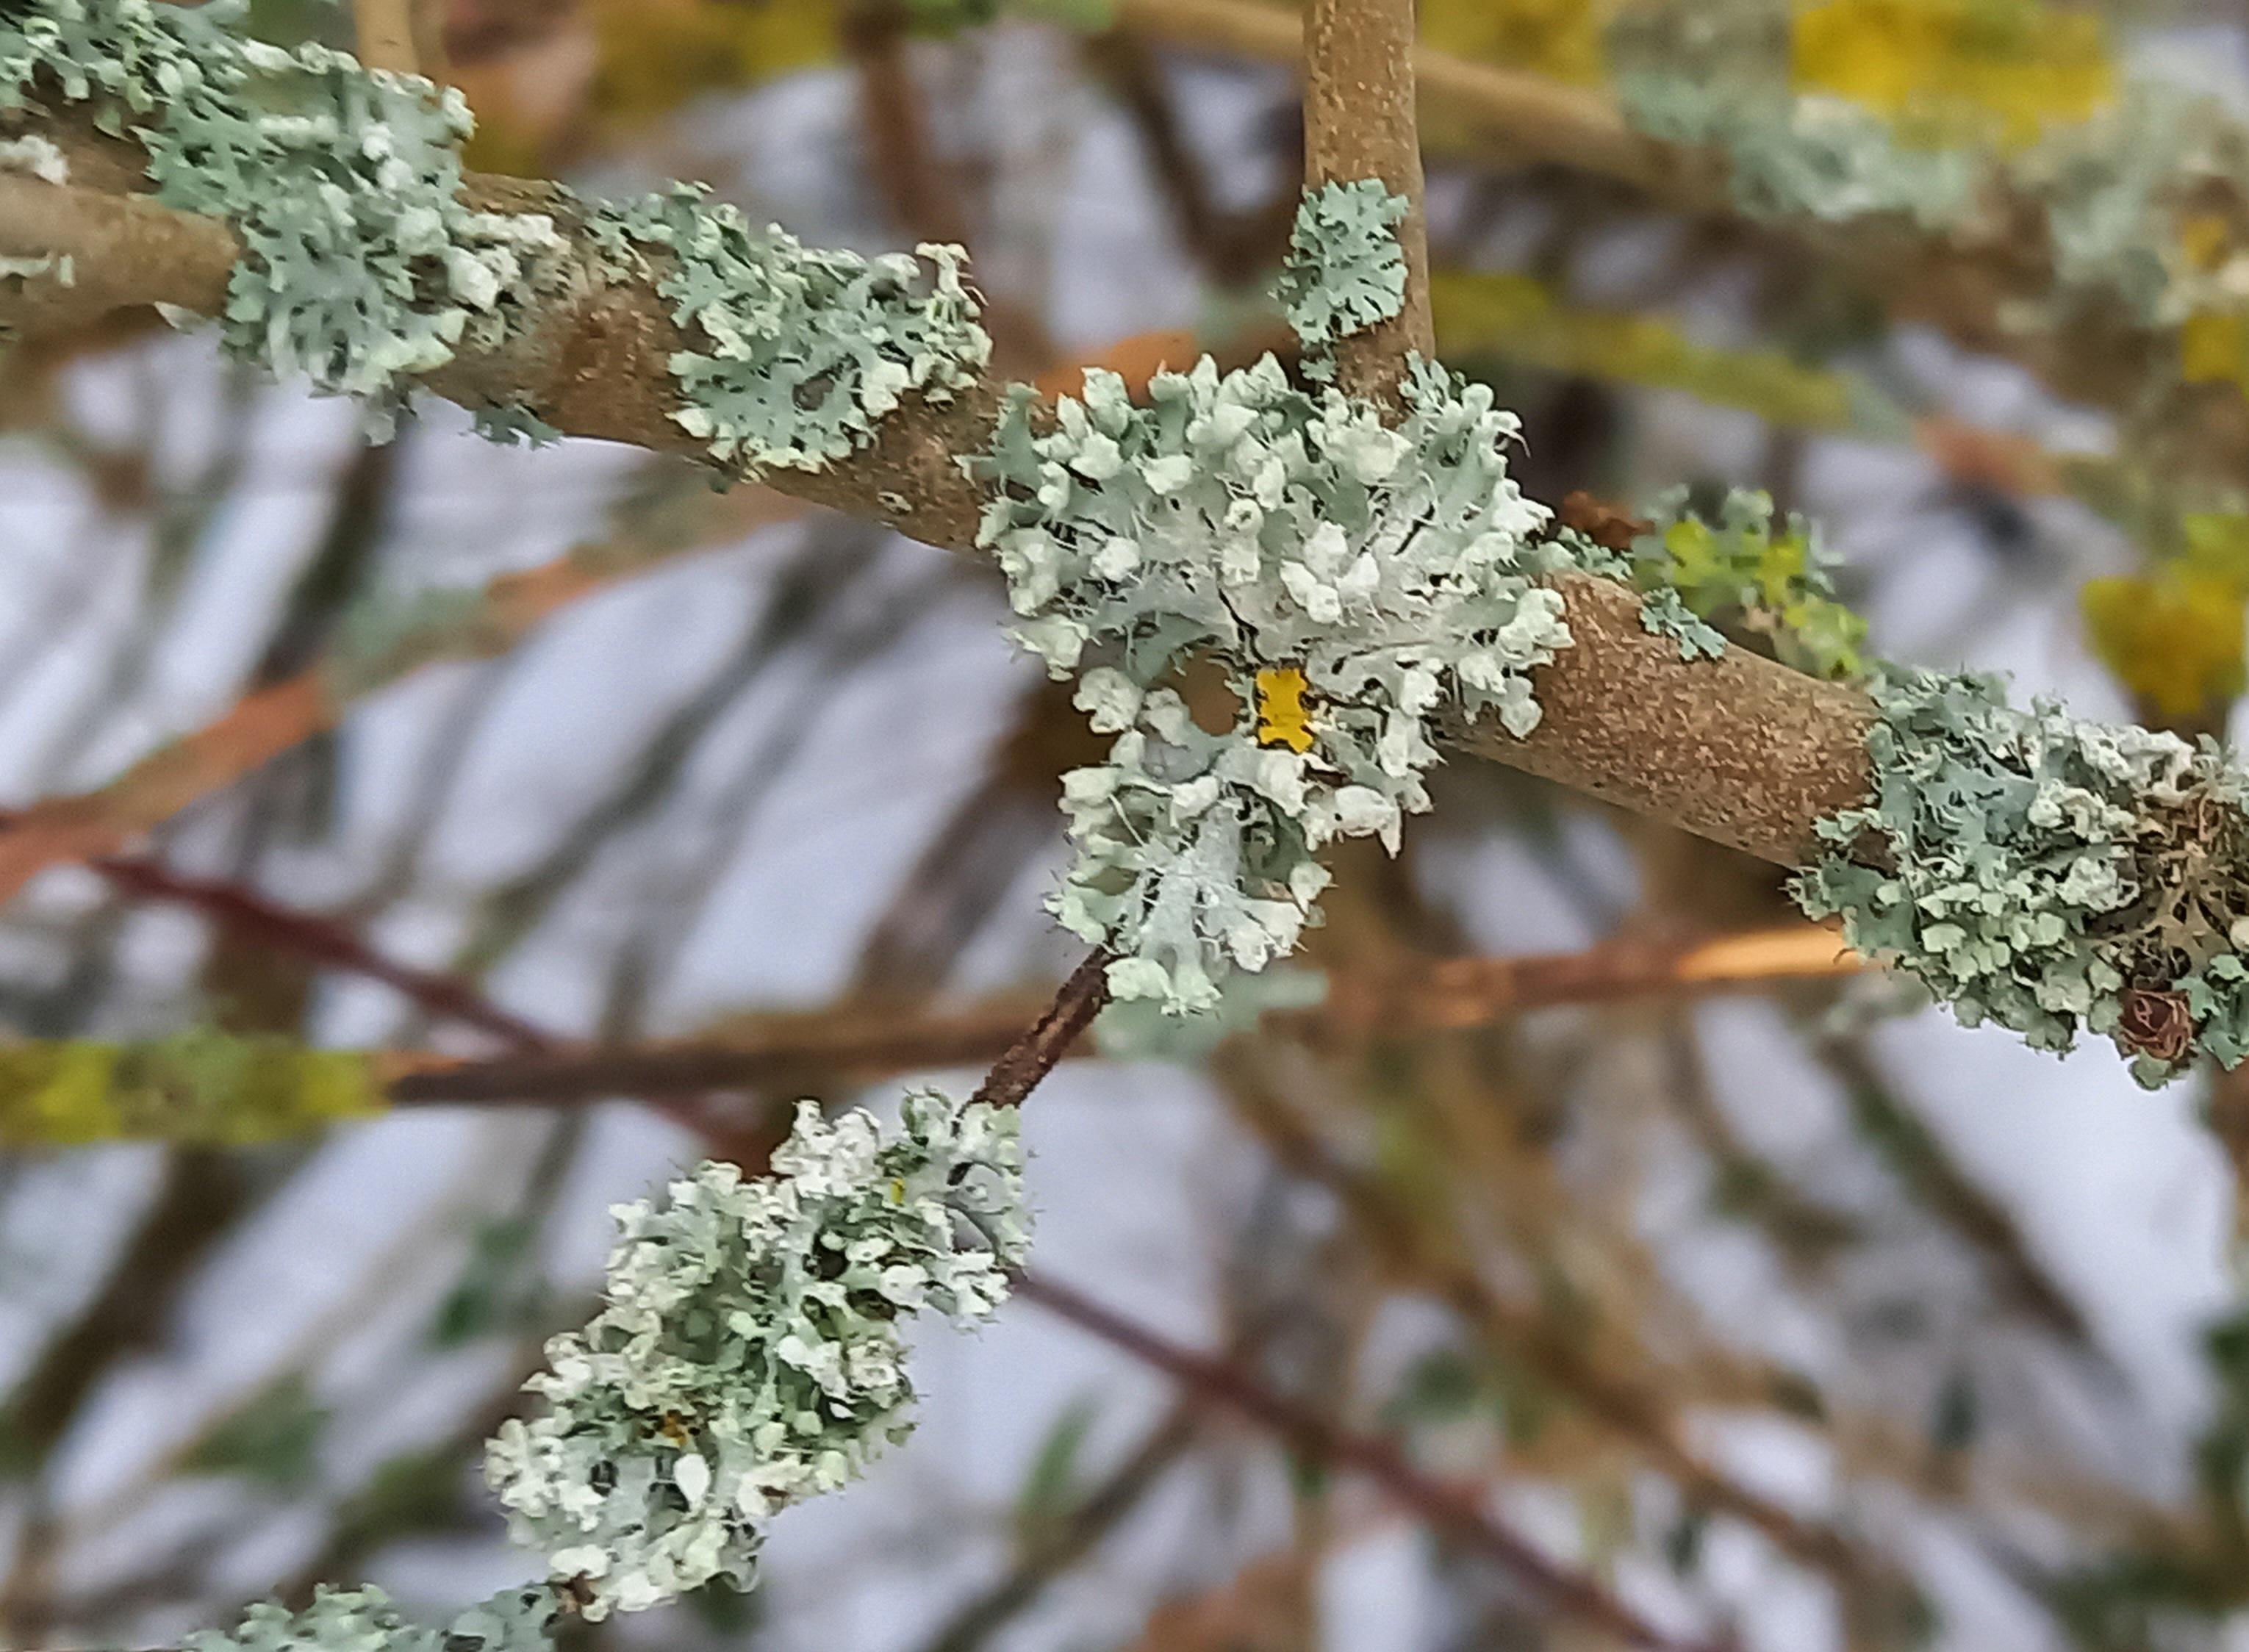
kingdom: Fungi
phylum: Ascomycota
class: Lecanoromycetes
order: Caliciales
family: Physciaceae
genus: Physcia
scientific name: Physcia adscendens
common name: hætte-rosetlav
